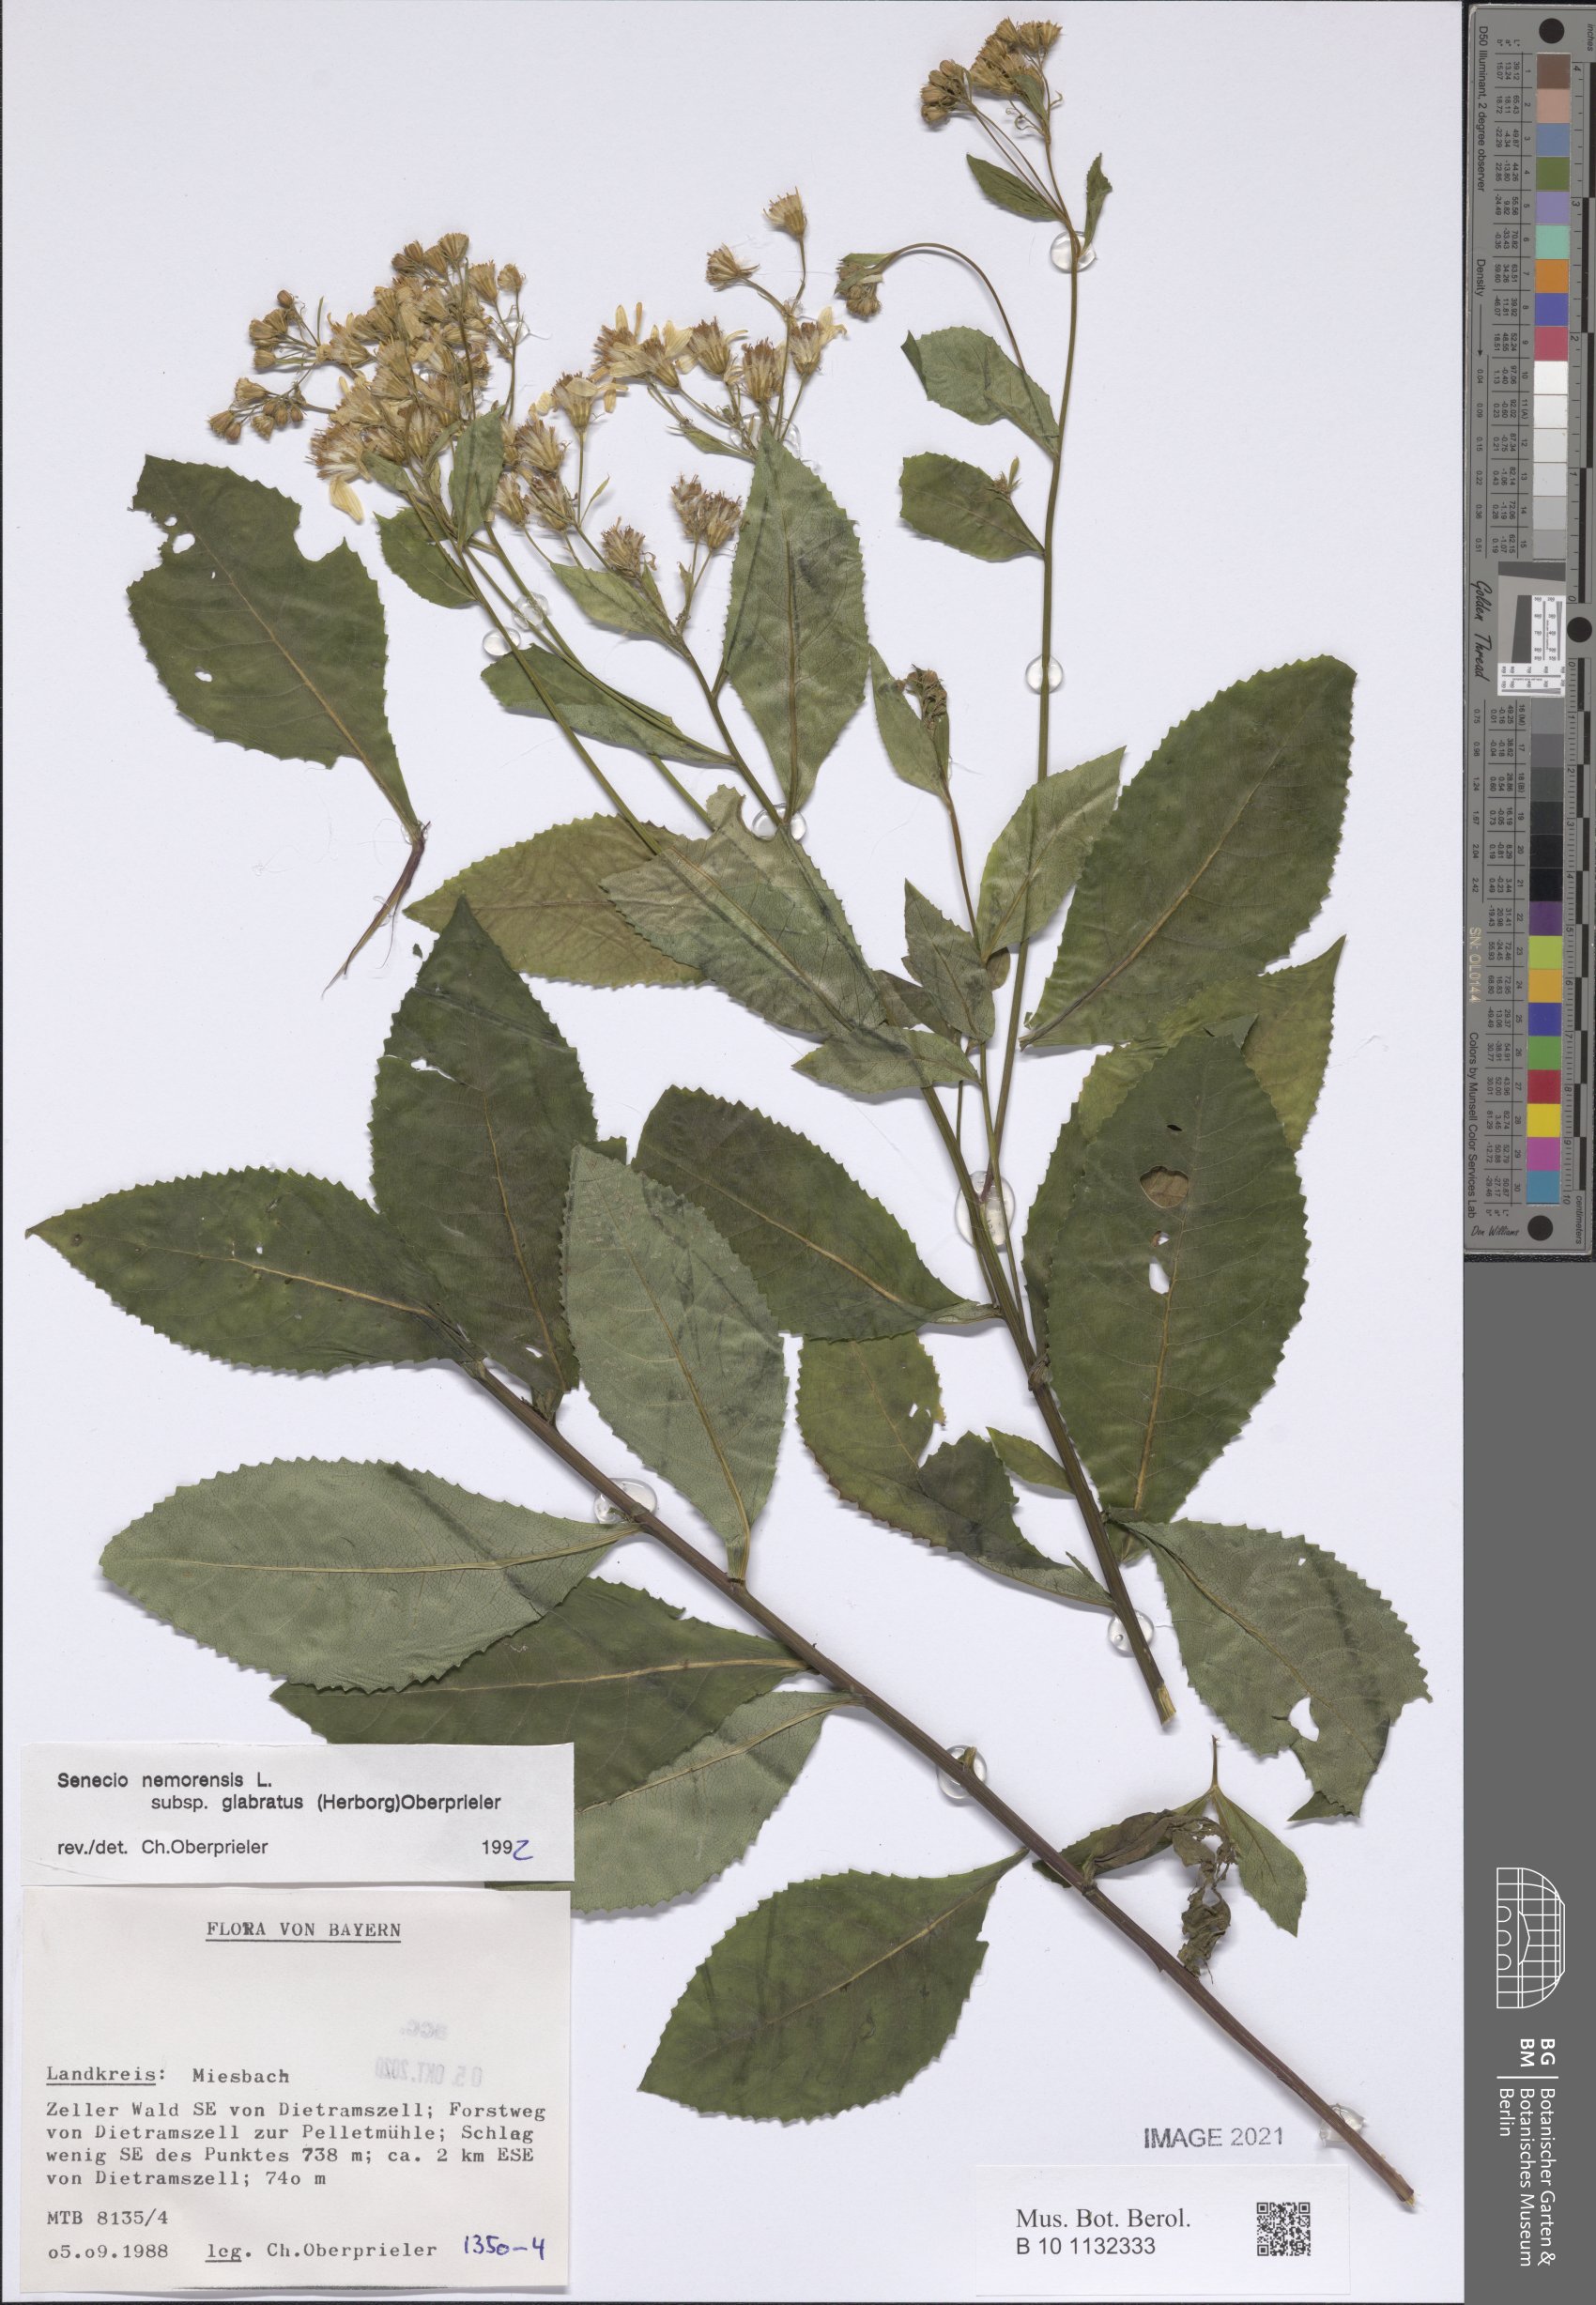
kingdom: Plantae
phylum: Tracheophyta
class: Magnoliopsida
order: Asterales
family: Asteraceae
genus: Senecio
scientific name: Senecio germanicus
